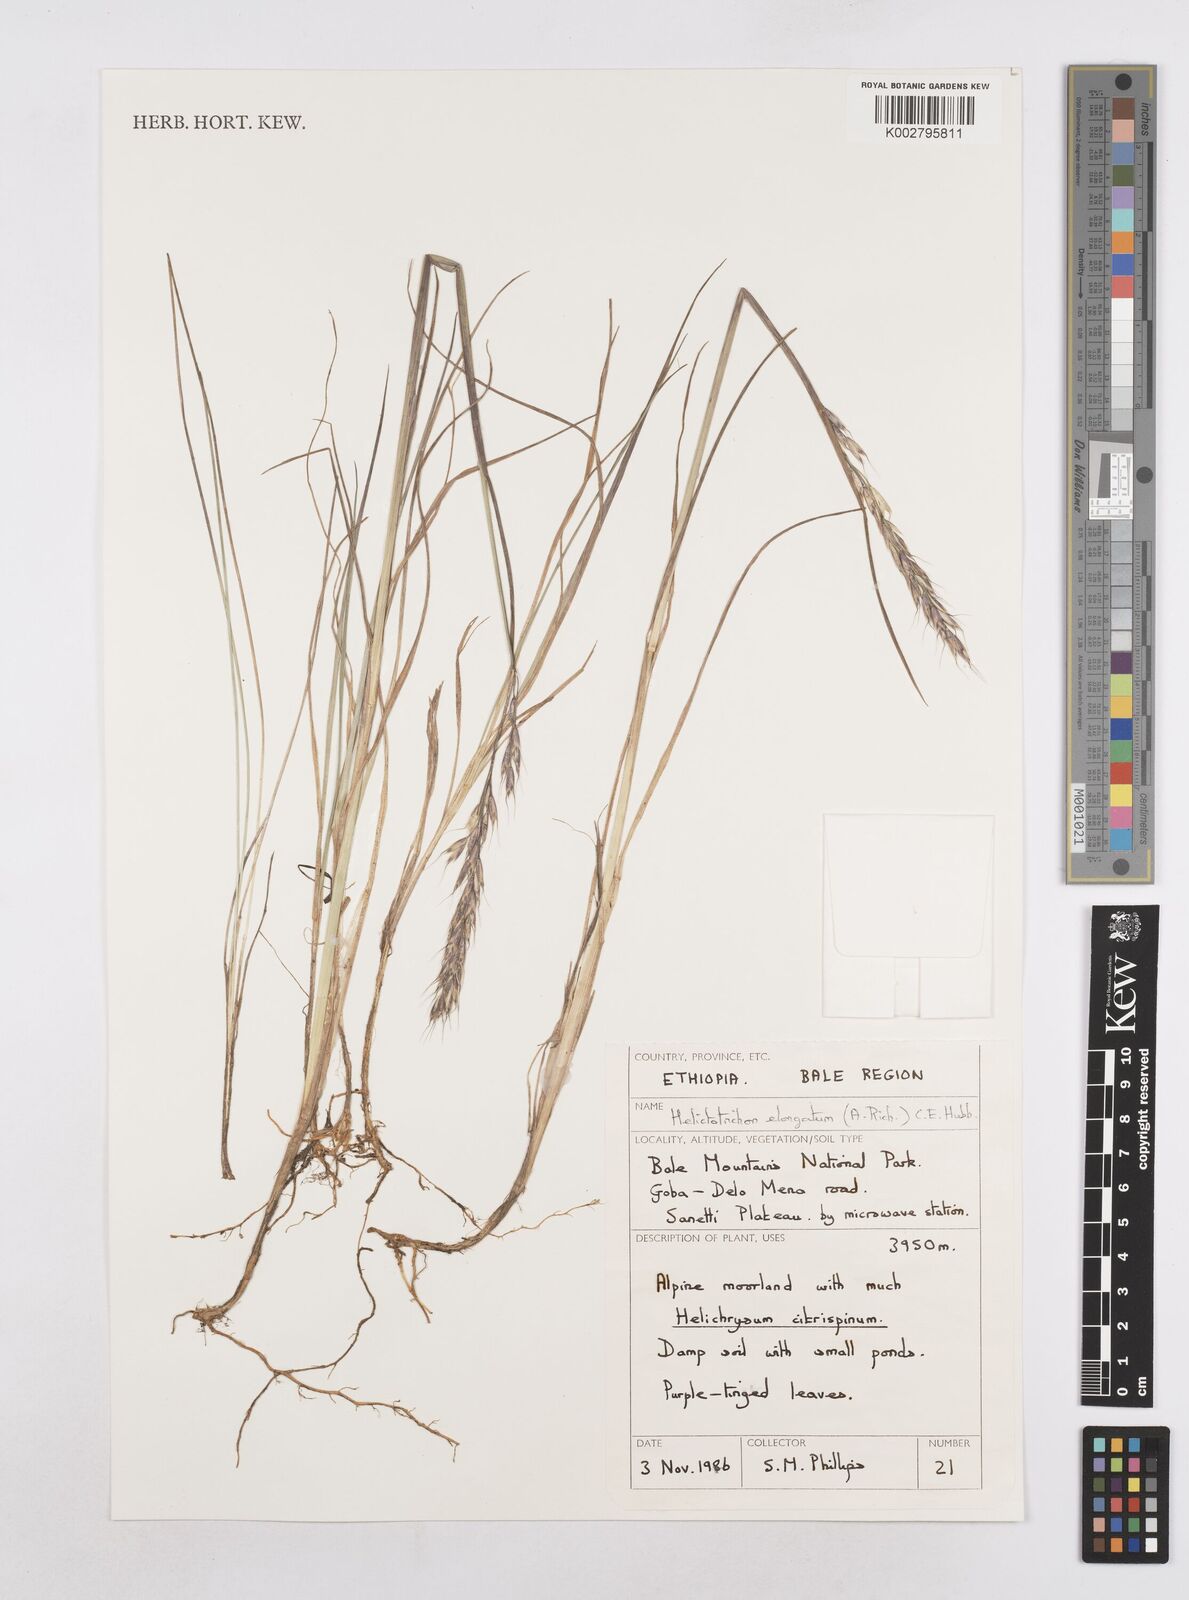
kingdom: Plantae
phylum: Tracheophyta
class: Liliopsida
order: Poales
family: Poaceae
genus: Trisetopsis
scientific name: Trisetopsis elongata
